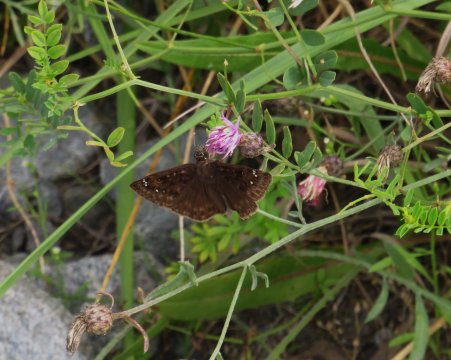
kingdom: Animalia
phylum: Arthropoda
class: Insecta
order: Lepidoptera
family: Hesperiidae
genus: Gesta
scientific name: Gesta
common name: Wild Indigo Duskywing
